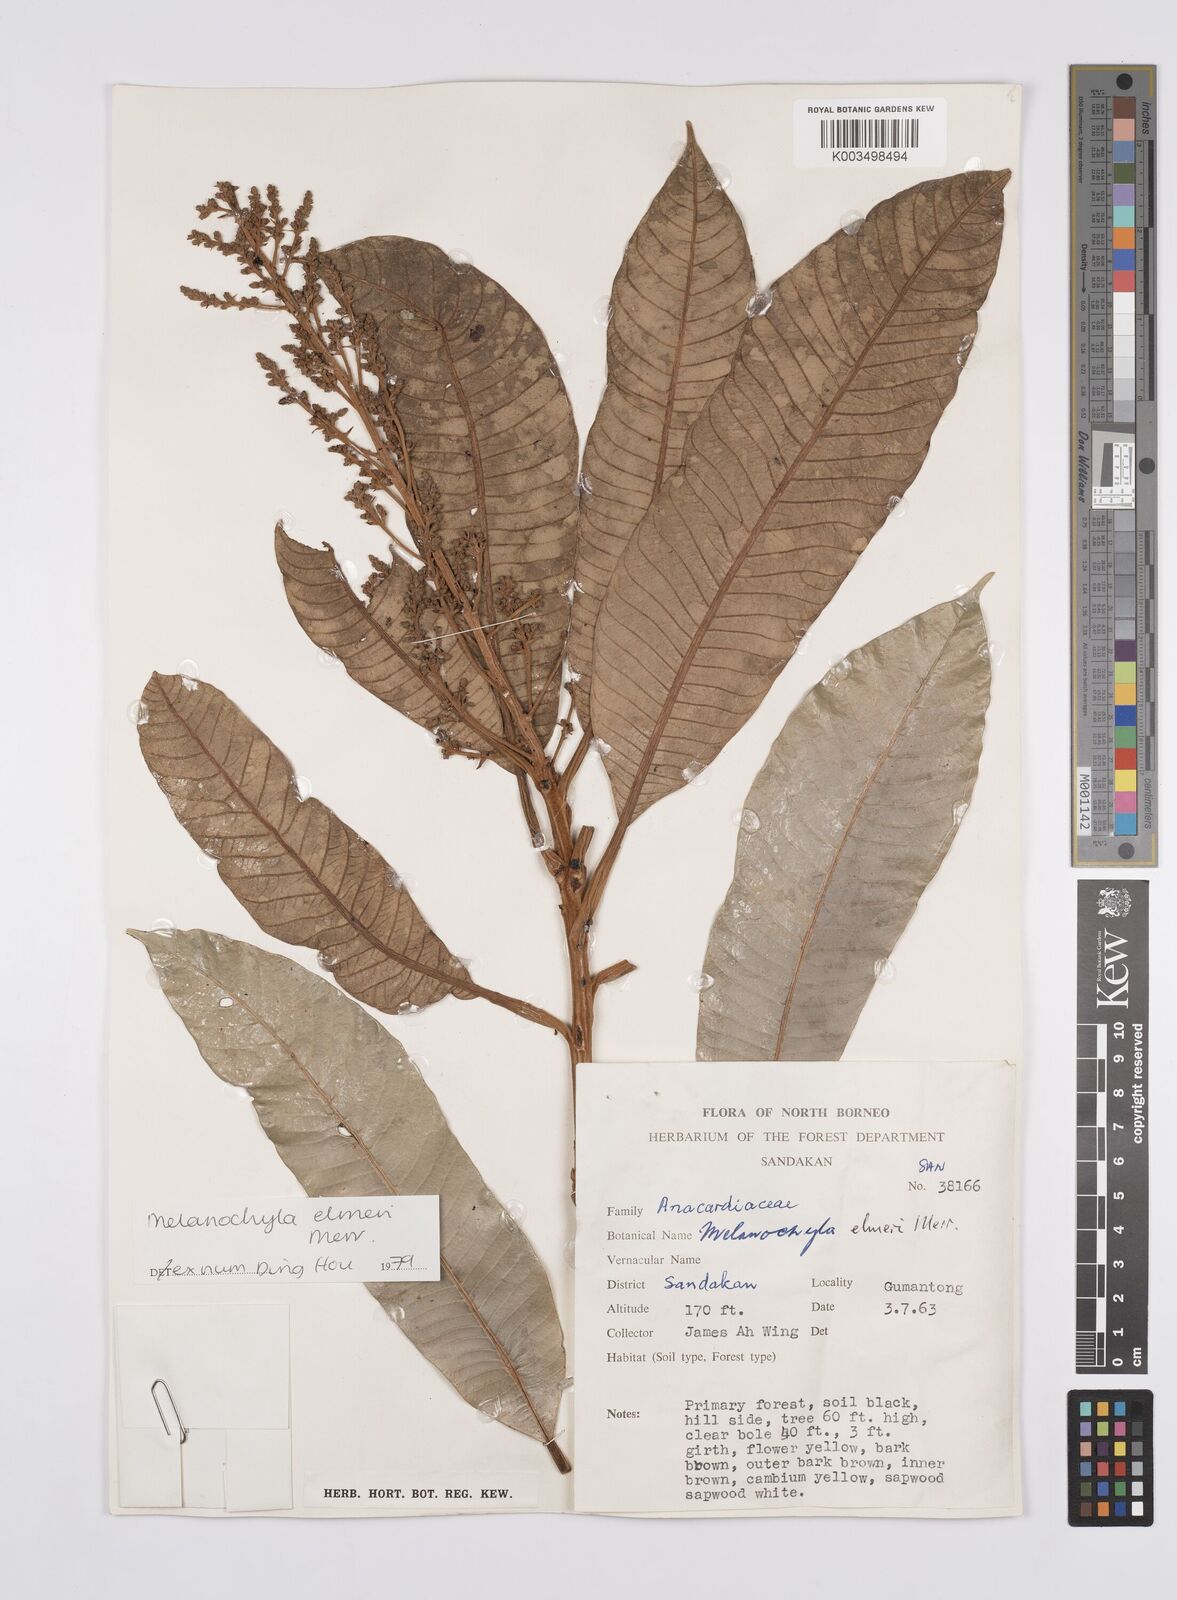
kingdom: Plantae
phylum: Tracheophyta
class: Magnoliopsida
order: Sapindales
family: Anacardiaceae
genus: Melanochyla
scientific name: Melanochyla elmeri
